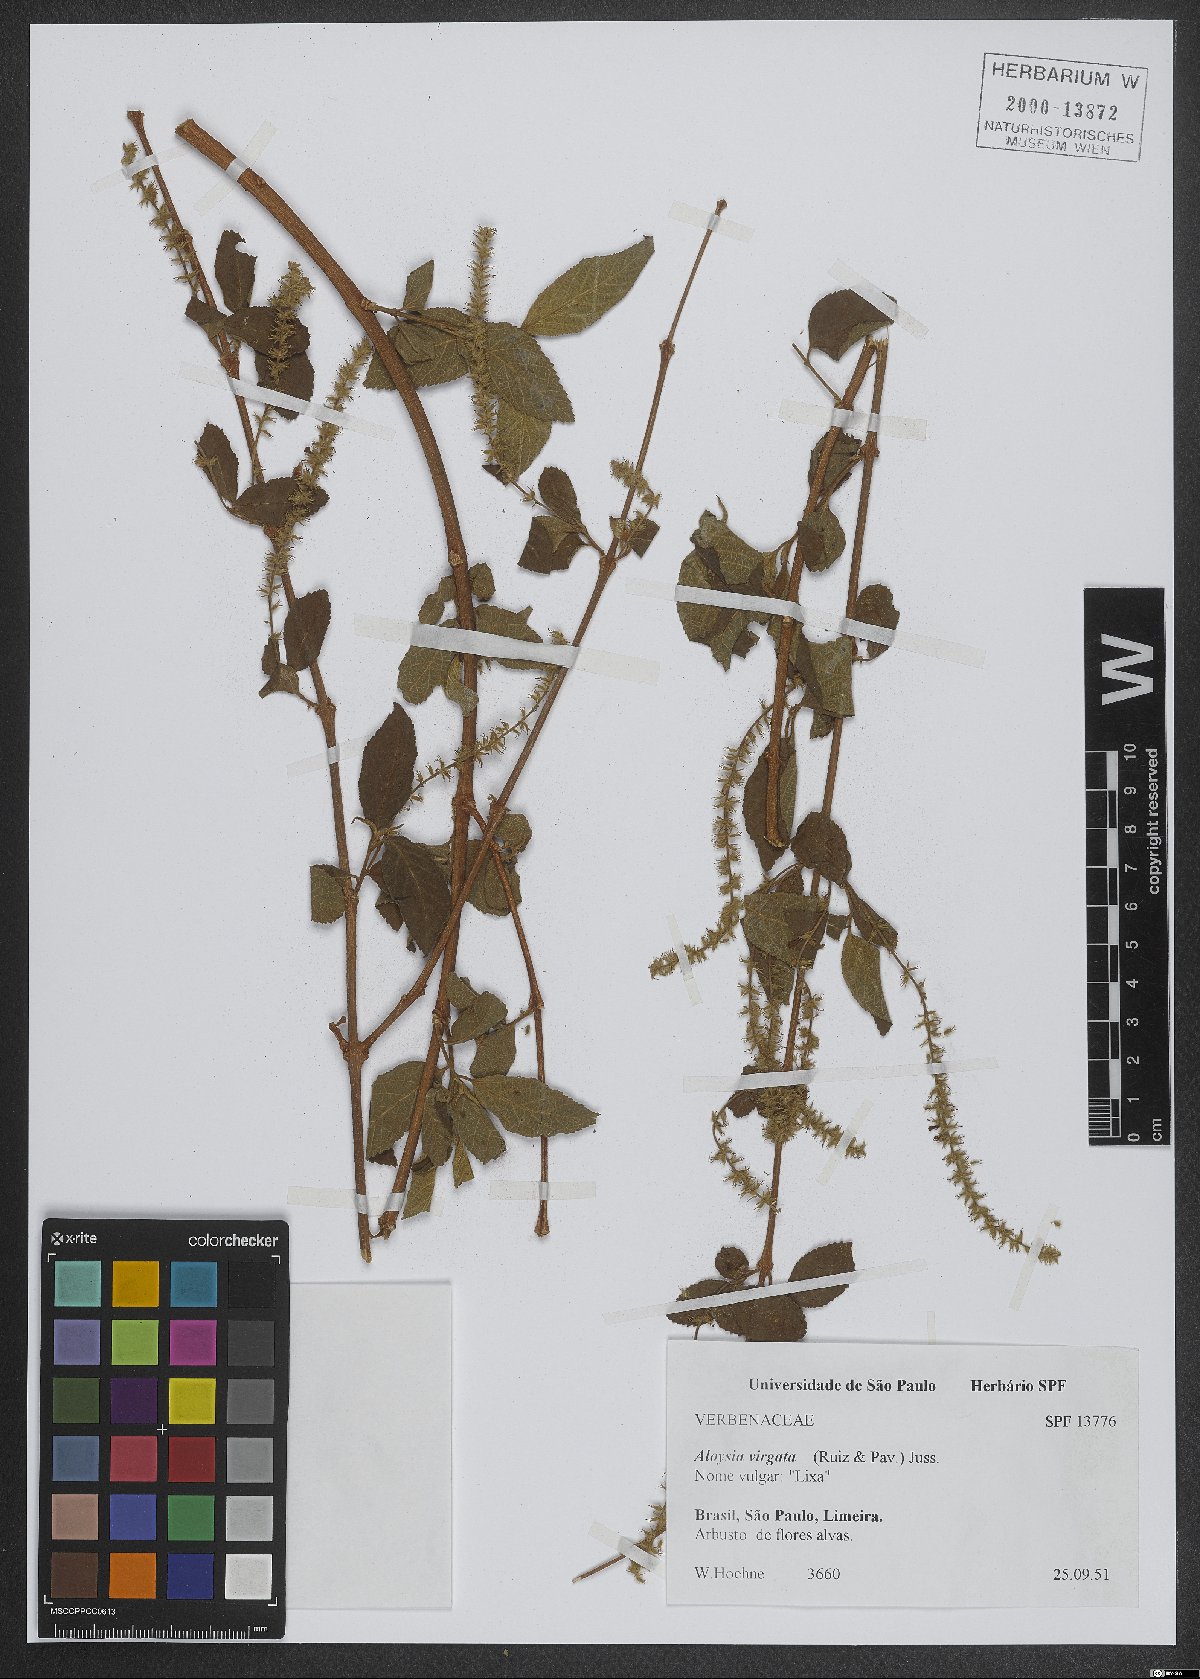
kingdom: Plantae
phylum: Tracheophyta
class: Magnoliopsida
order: Lamiales
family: Verbenaceae
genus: Aloysia
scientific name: Aloysia virgata
